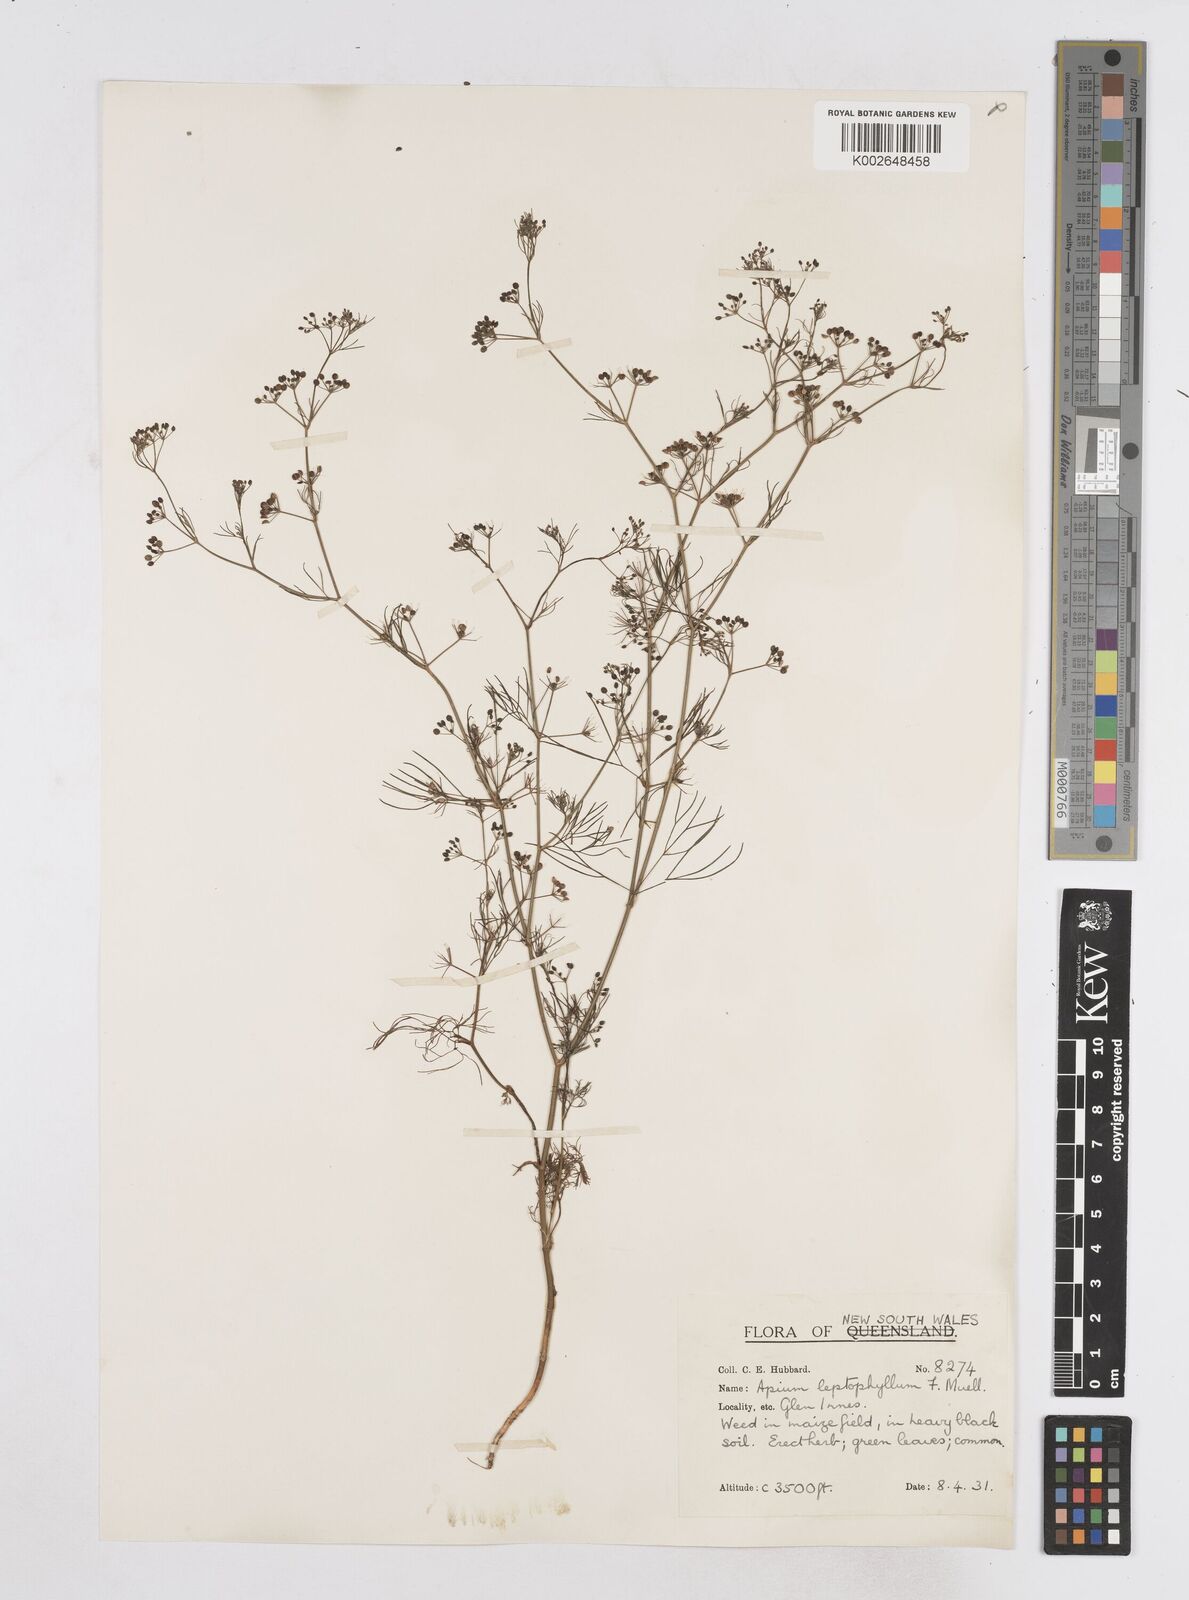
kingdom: Plantae
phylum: Tracheophyta
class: Magnoliopsida
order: Apiales
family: Apiaceae
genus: Cyclospermum
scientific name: Cyclospermum leptophyllum
